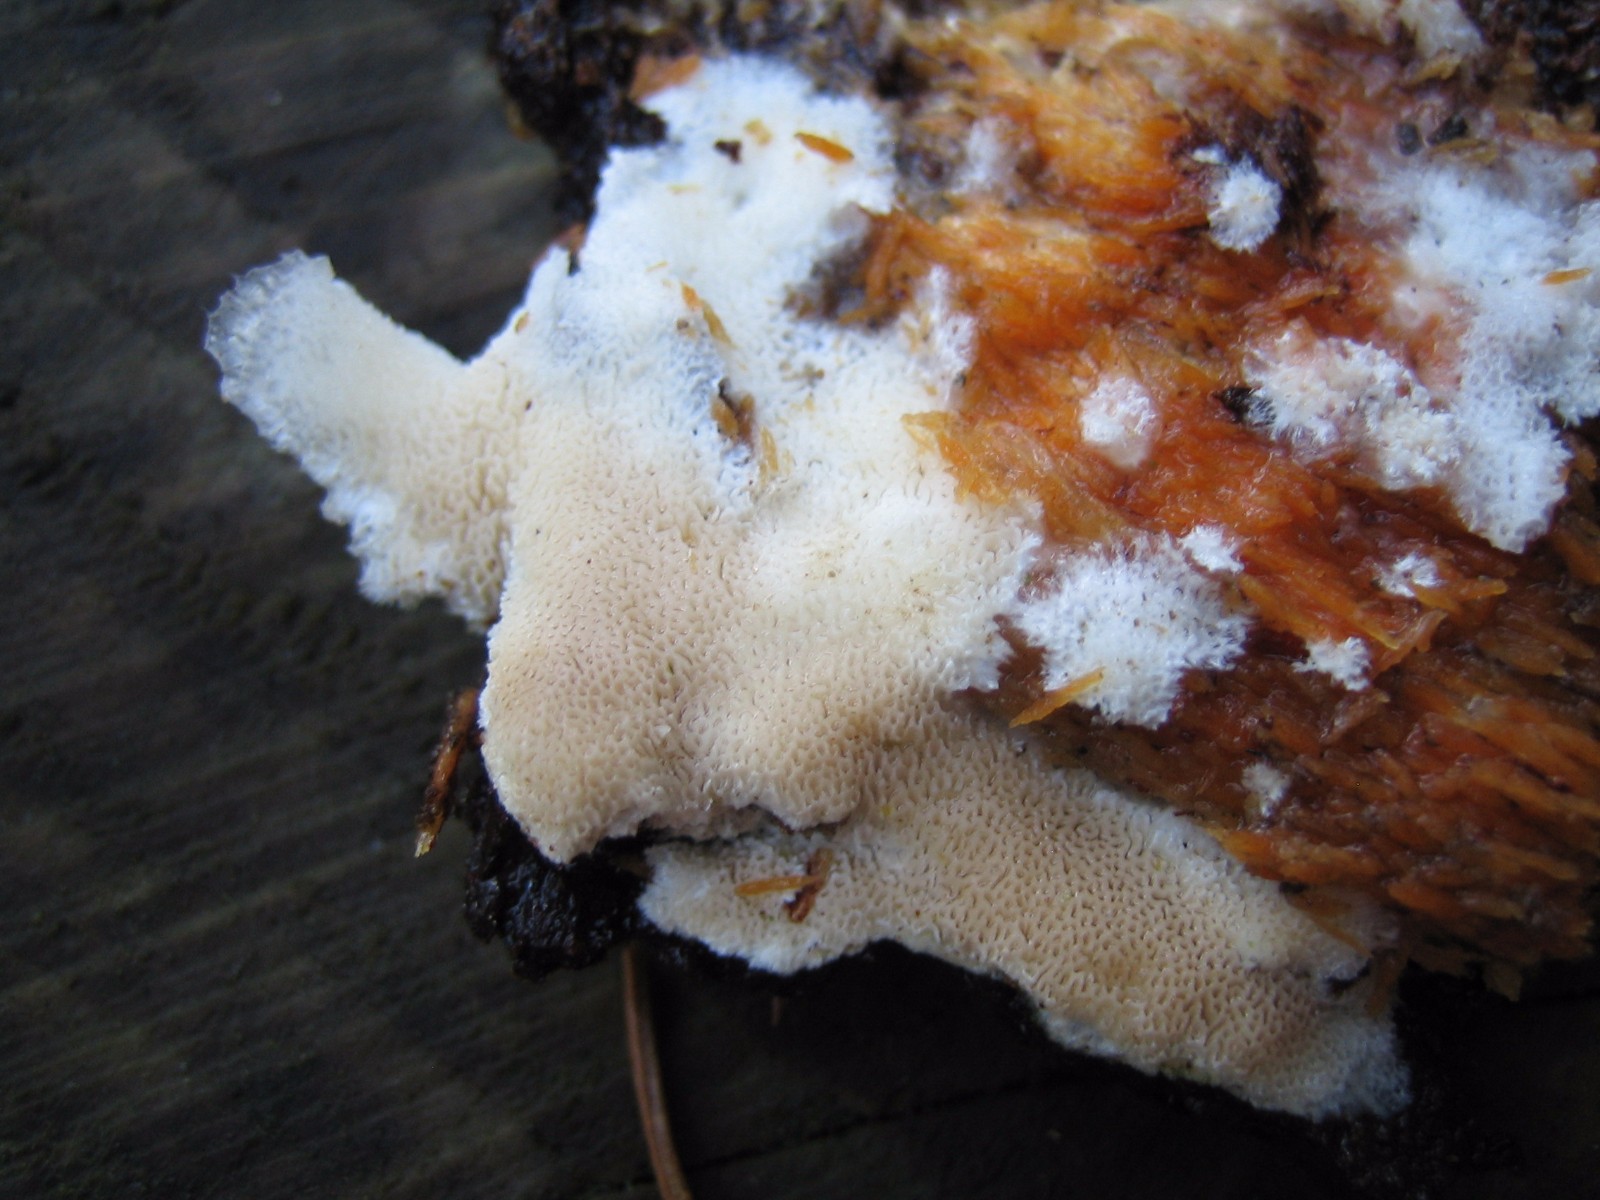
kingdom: Fungi
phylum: Basidiomycota
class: Agaricomycetes
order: Polyporales
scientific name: Polyporales
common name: poresvampordenen
